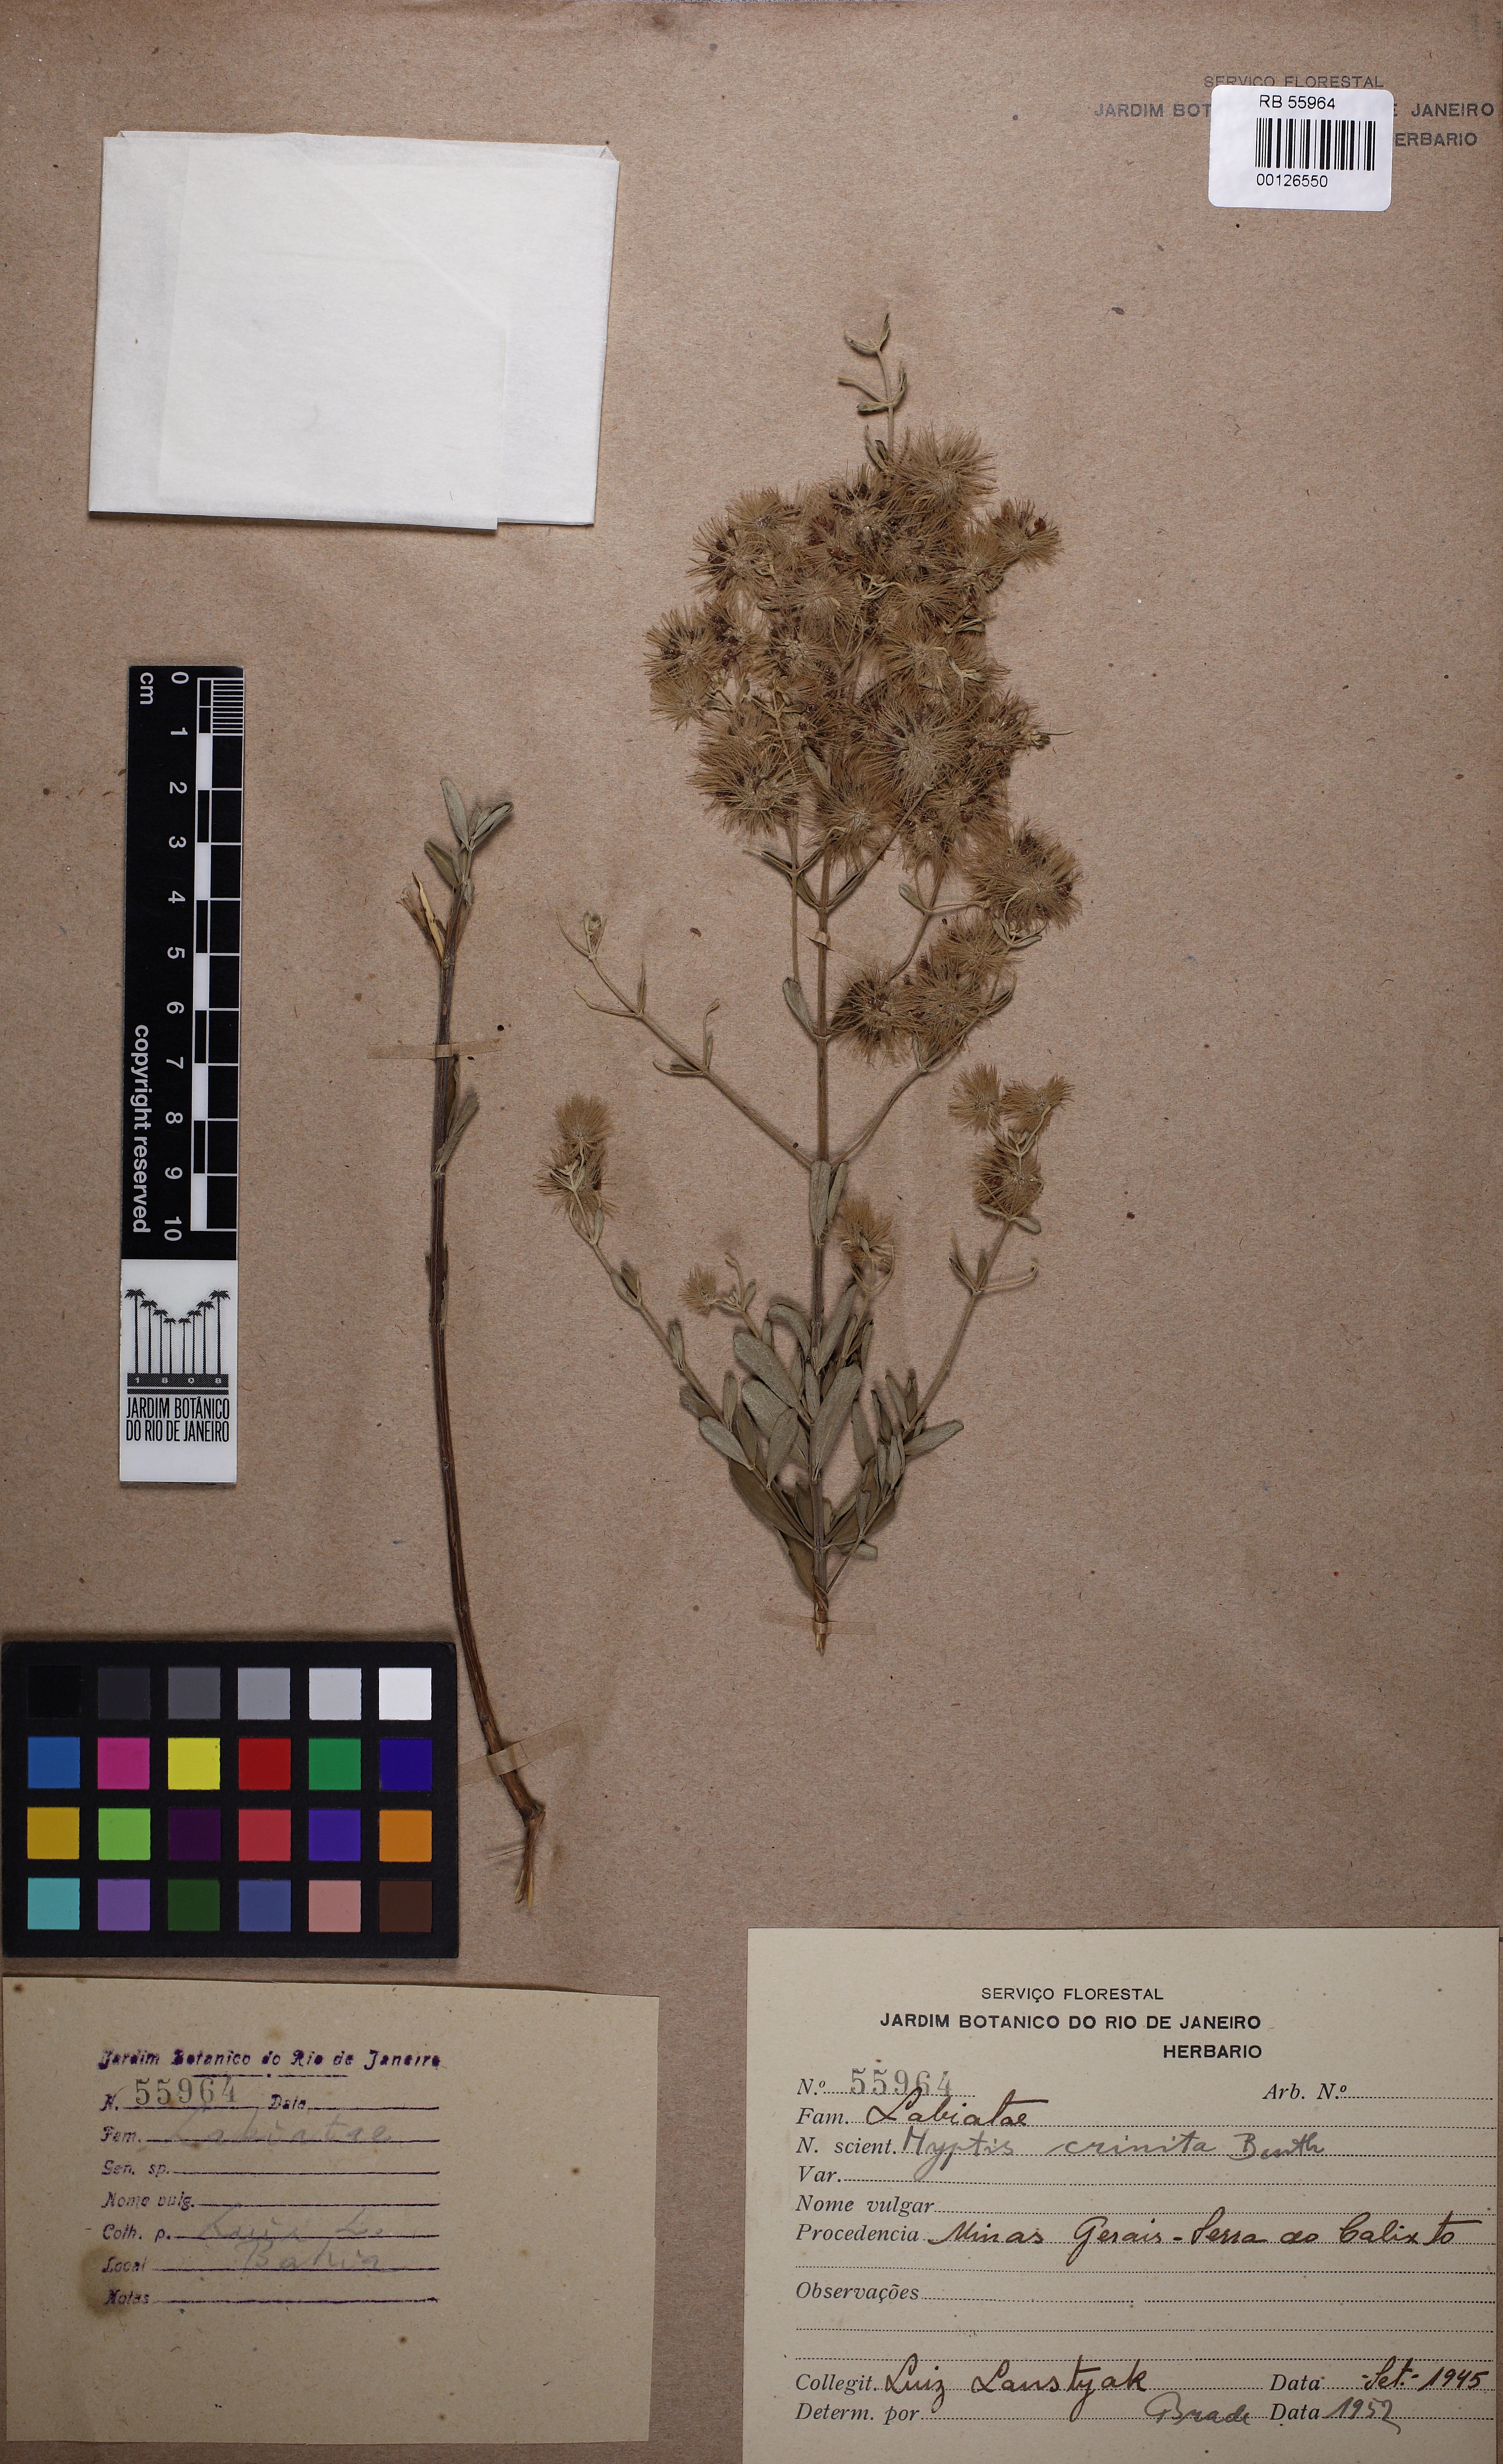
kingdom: Plantae
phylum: Tracheophyta
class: Magnoliopsida
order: Lamiales
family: Lamiaceae
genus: Medusantha
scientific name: Medusantha crinita
